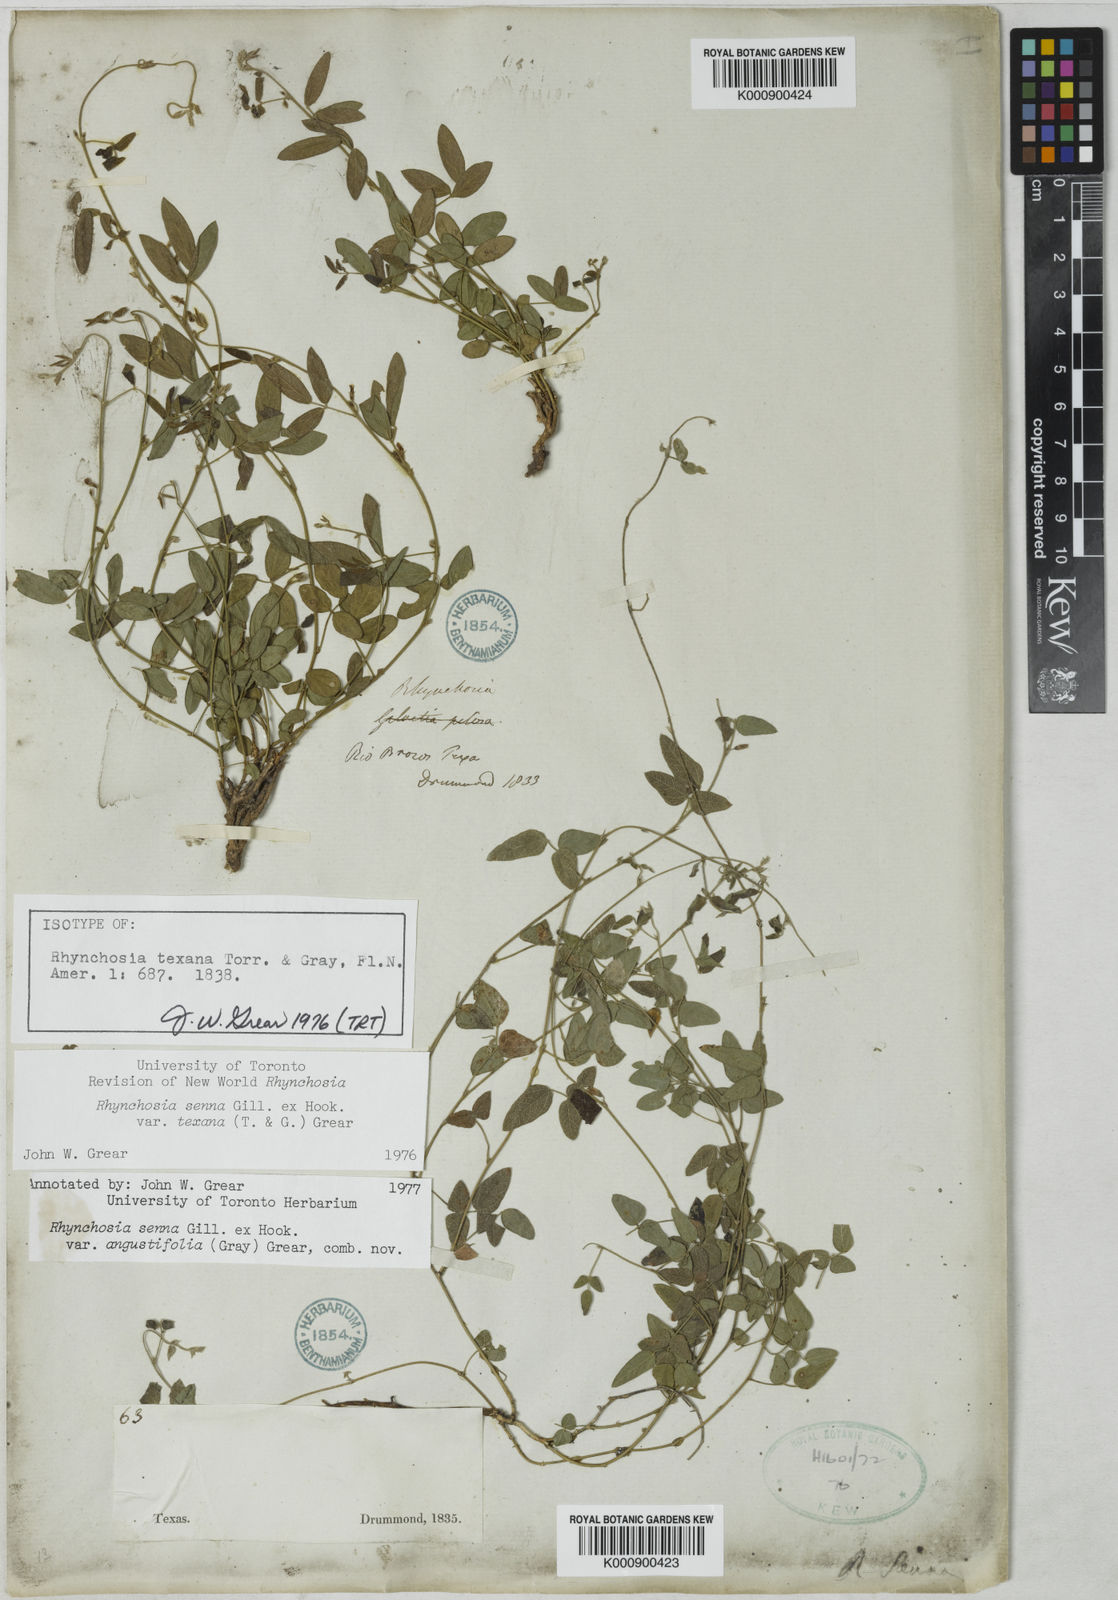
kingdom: Plantae
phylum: Tracheophyta
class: Magnoliopsida
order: Fabales
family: Fabaceae
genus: Rhynchosia
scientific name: Rhynchosia senna
